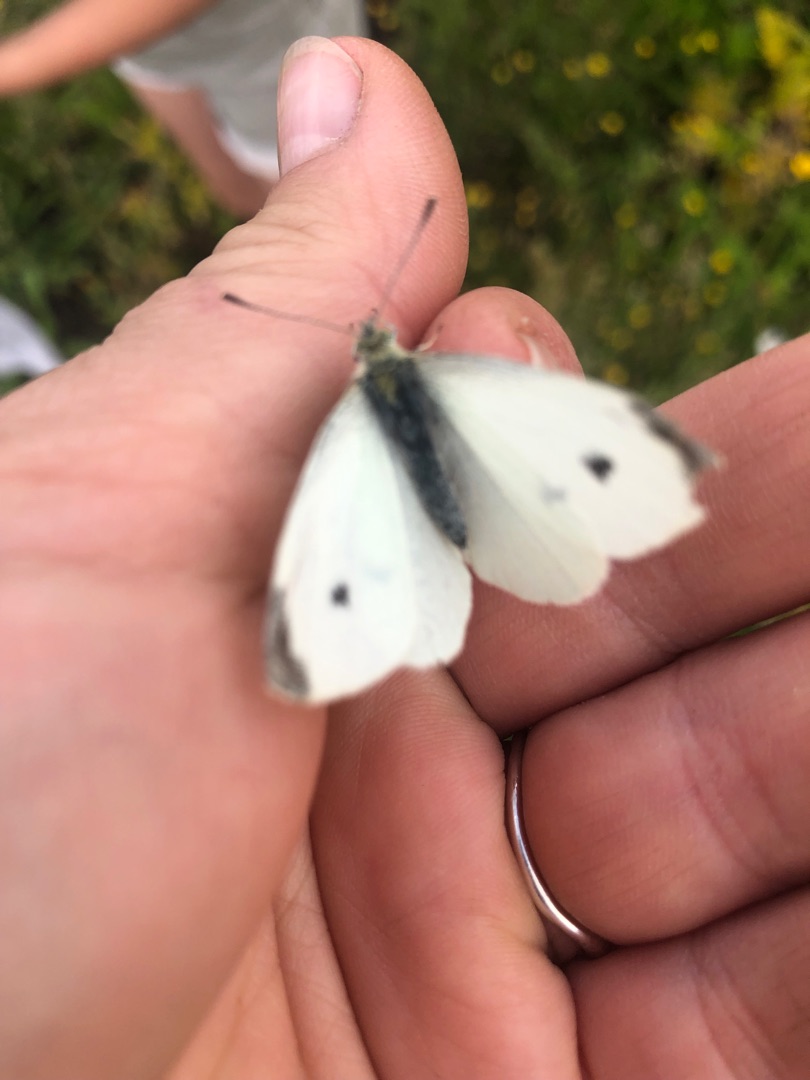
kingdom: Animalia
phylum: Arthropoda
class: Insecta
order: Lepidoptera
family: Pieridae
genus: Pieris
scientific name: Pieris rapae
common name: Lille kålsommerfugl
